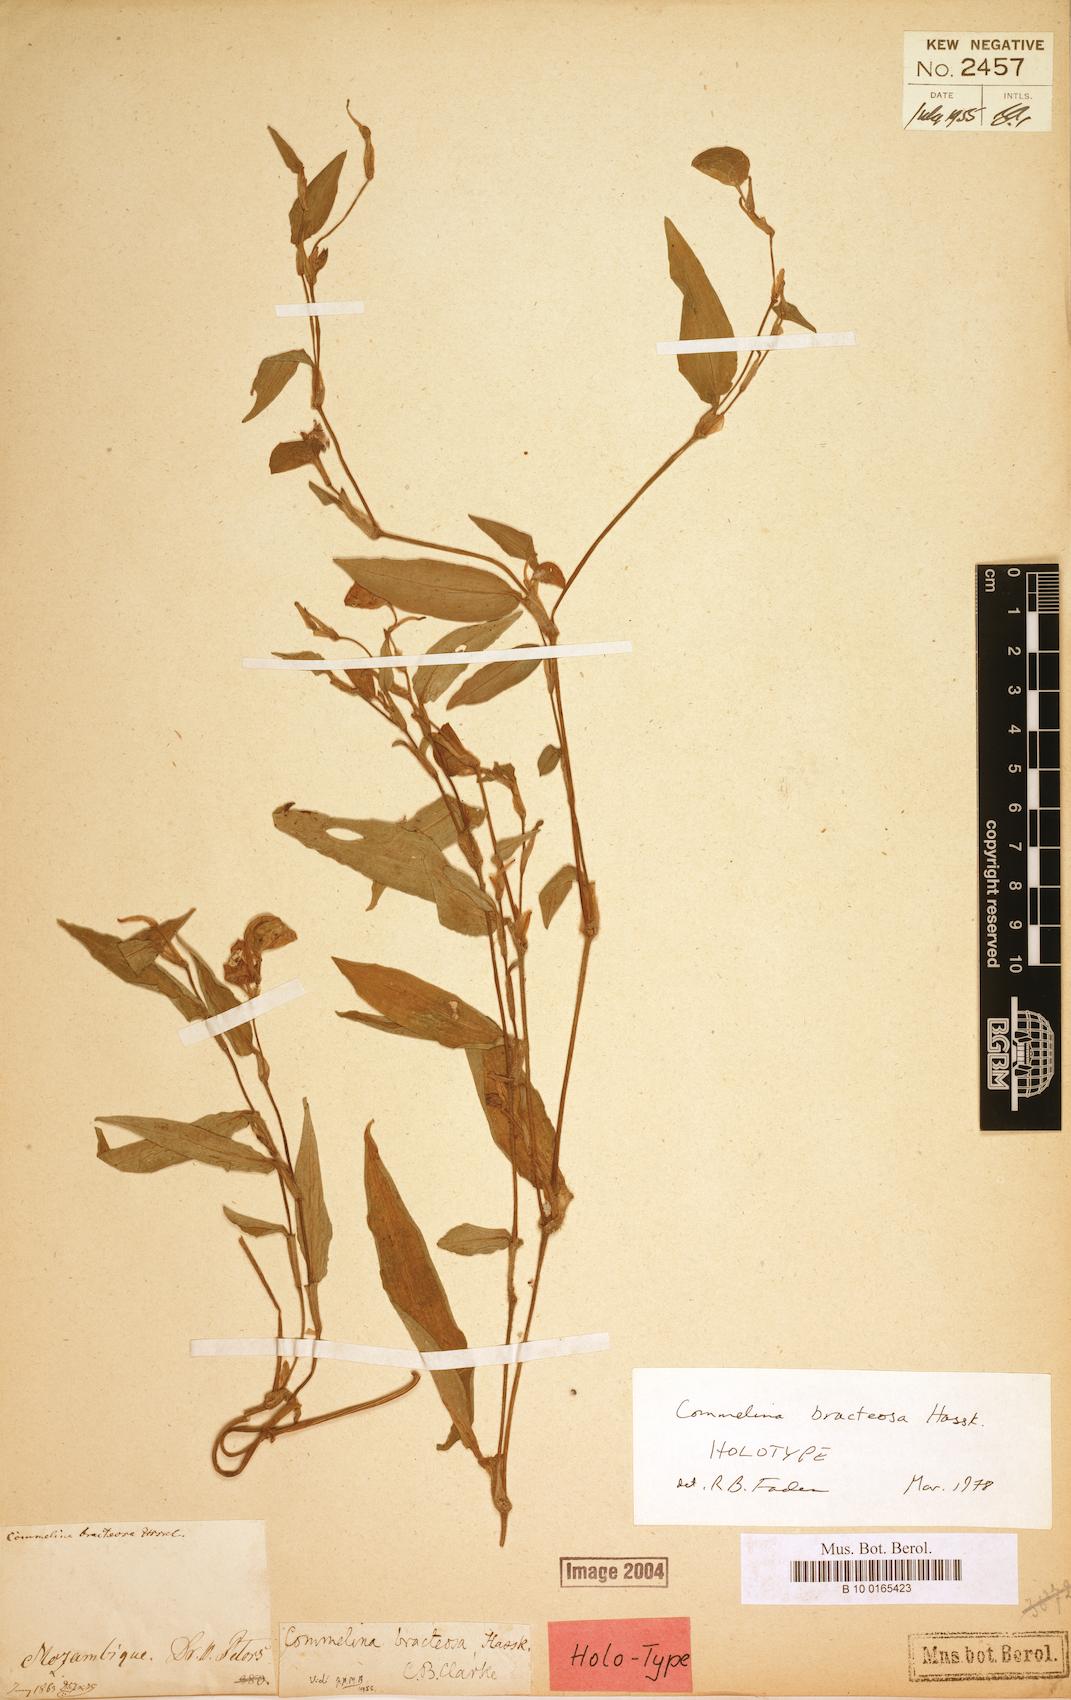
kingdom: Plantae
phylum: Tracheophyta
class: Liliopsida
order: Commelinales
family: Commelinaceae
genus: Commelina
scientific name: Commelina bracteosa
